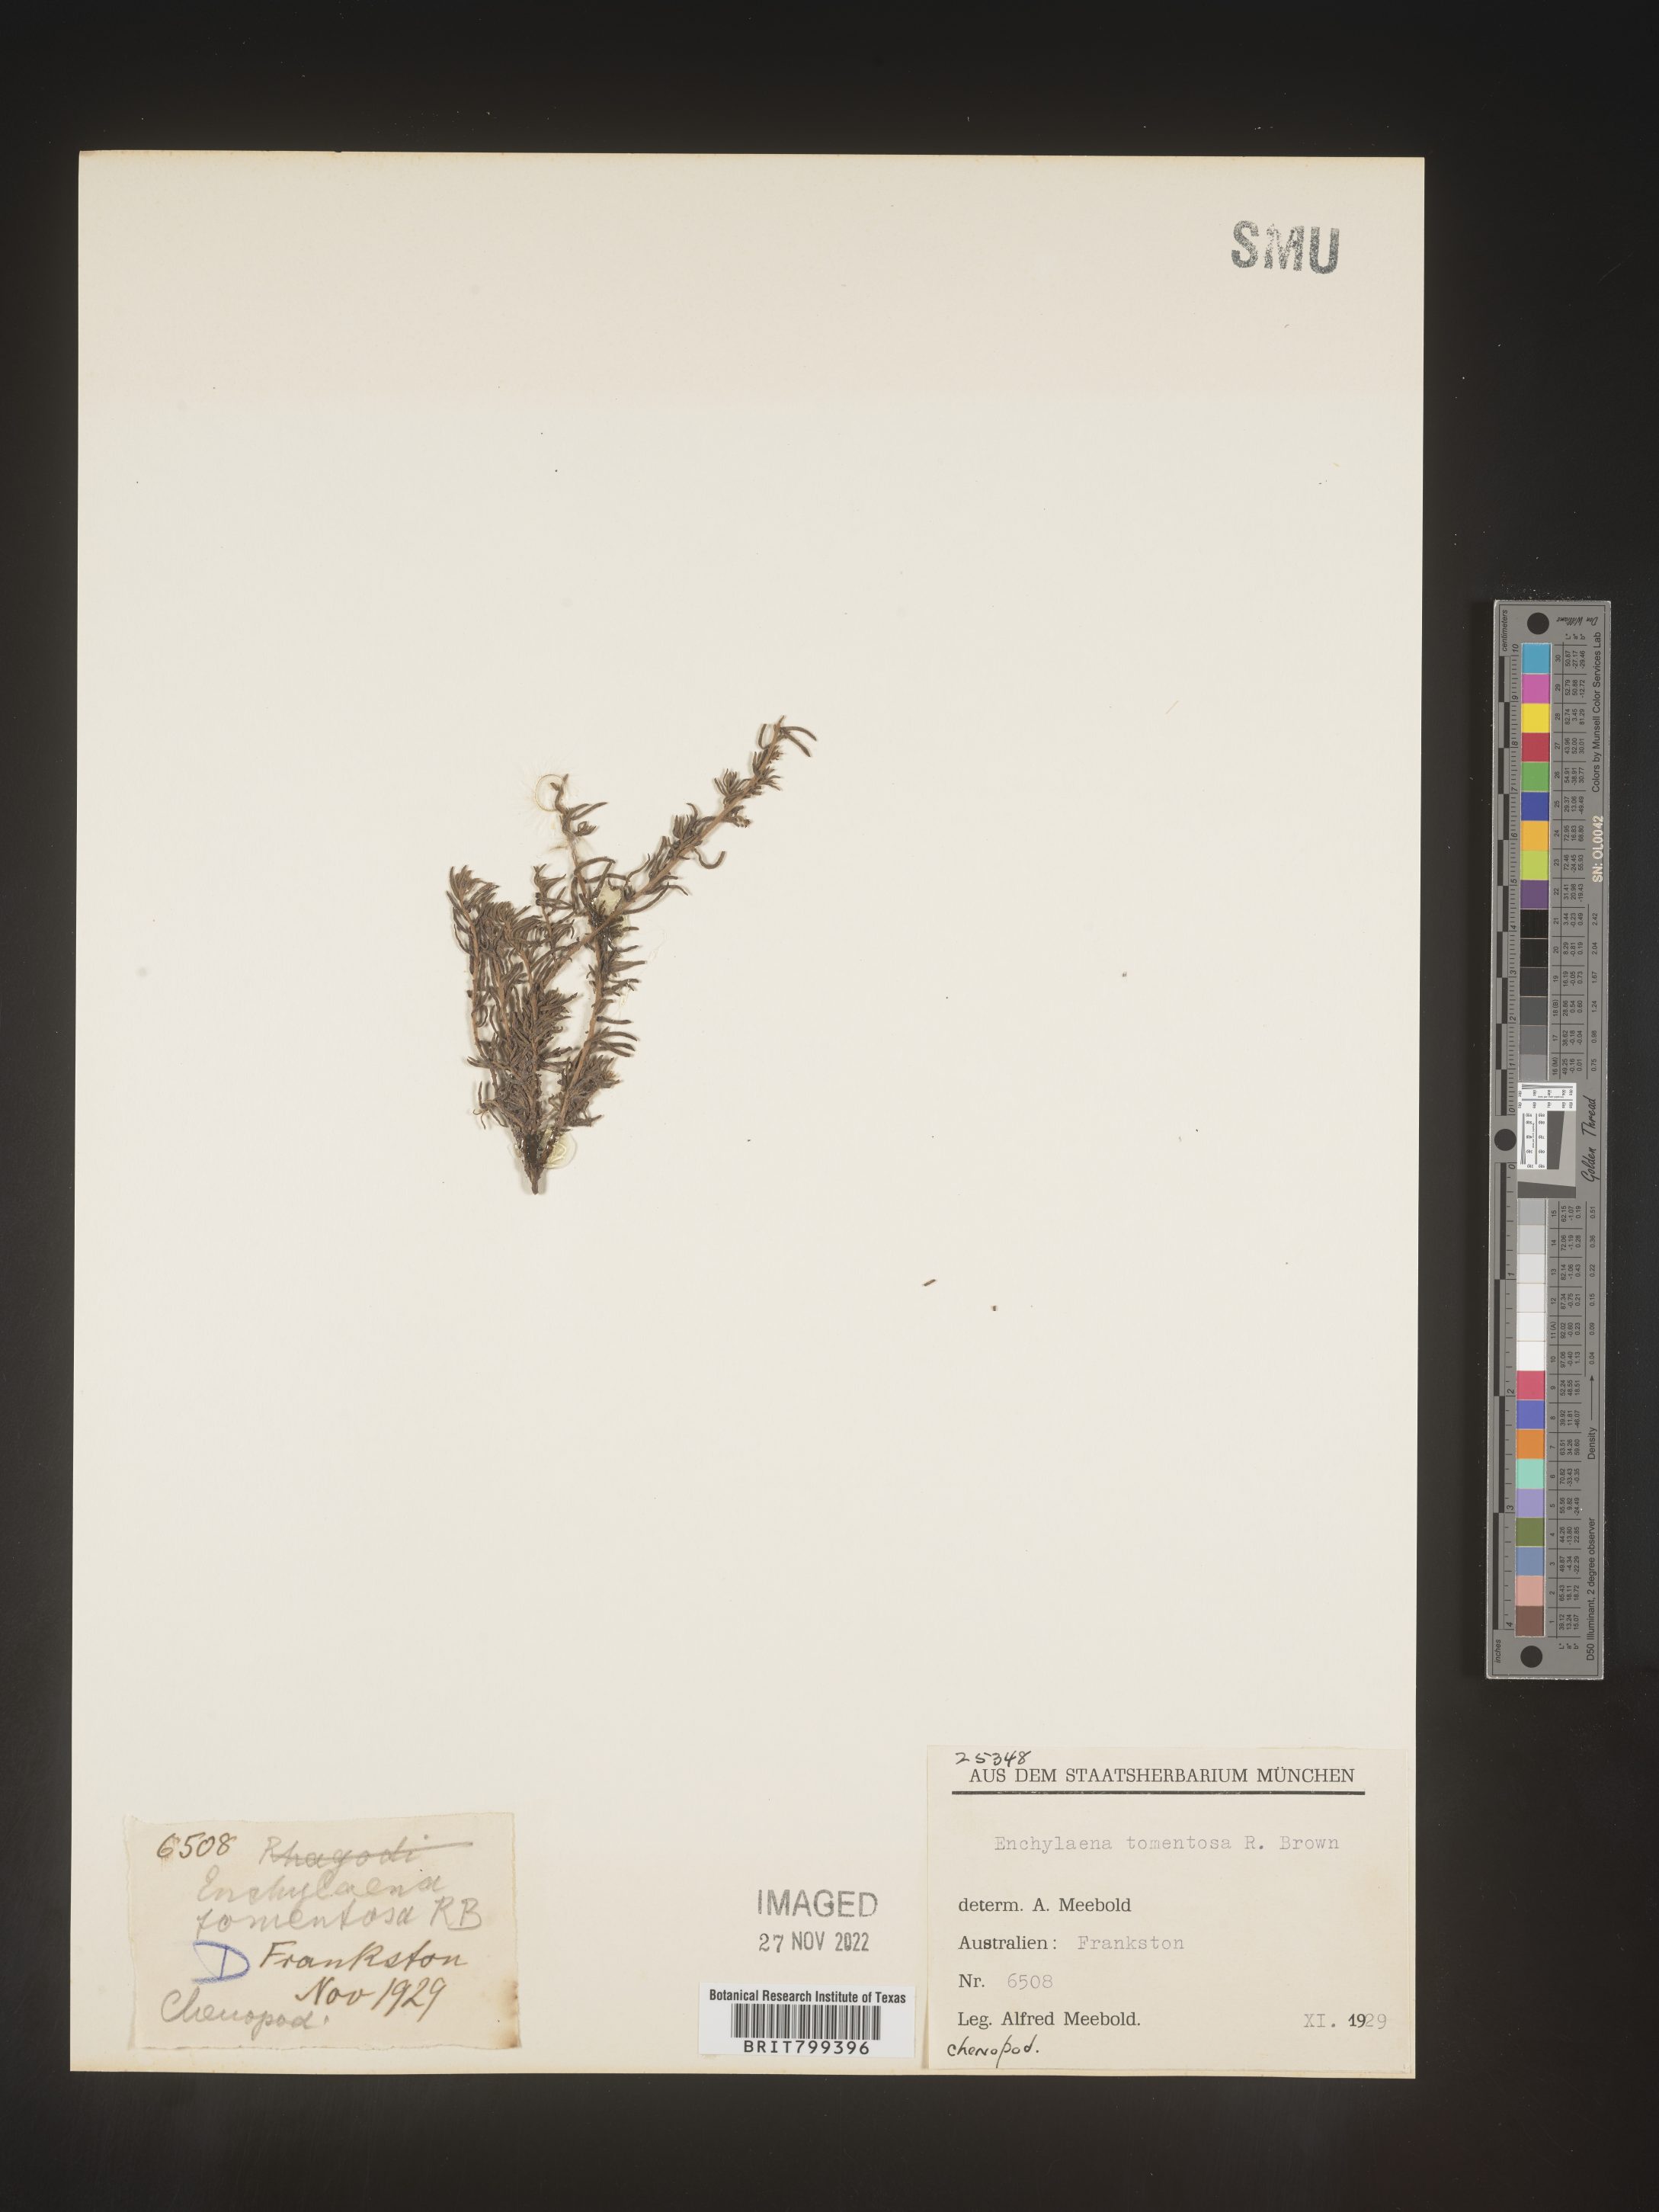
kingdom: Plantae
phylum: Tracheophyta
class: Magnoliopsida
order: Caryophyllales
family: Amaranthaceae
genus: Enchylaena
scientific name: Enchylaena
